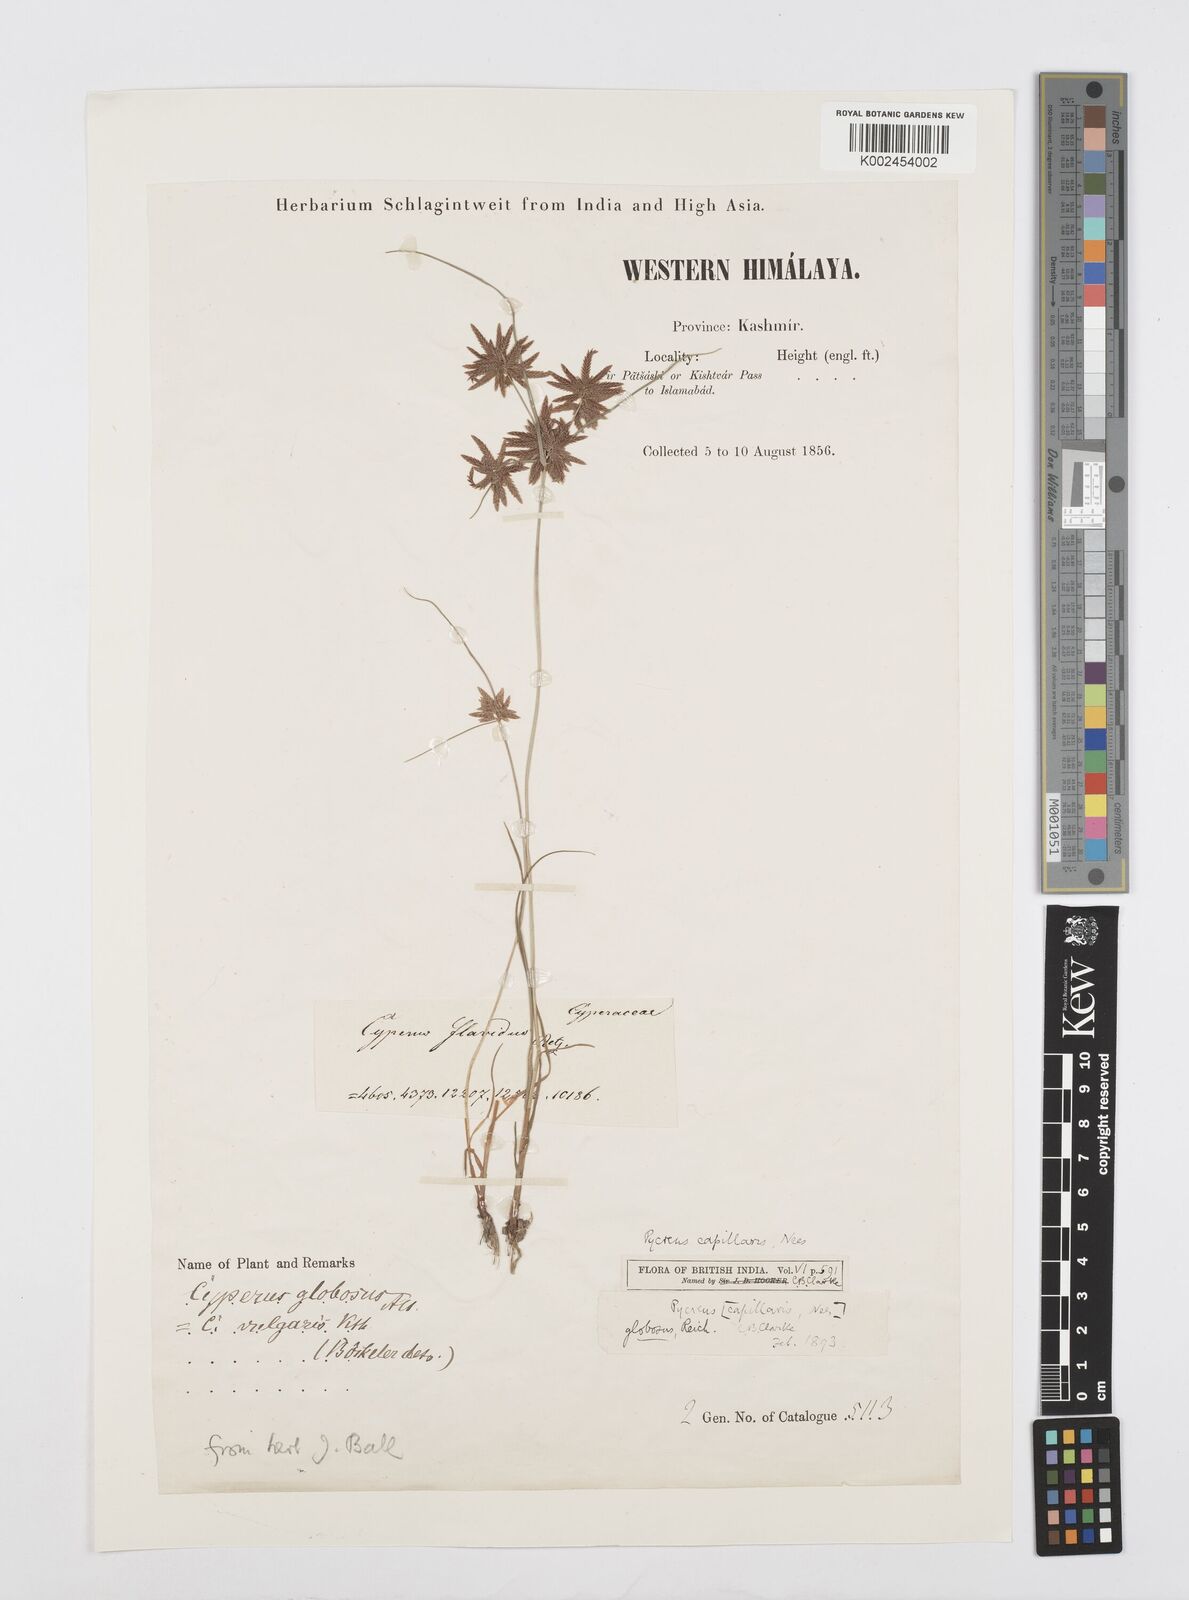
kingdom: Plantae
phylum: Tracheophyta
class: Liliopsida
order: Poales
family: Cyperaceae
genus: Cyperus
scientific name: Cyperus flavidus
